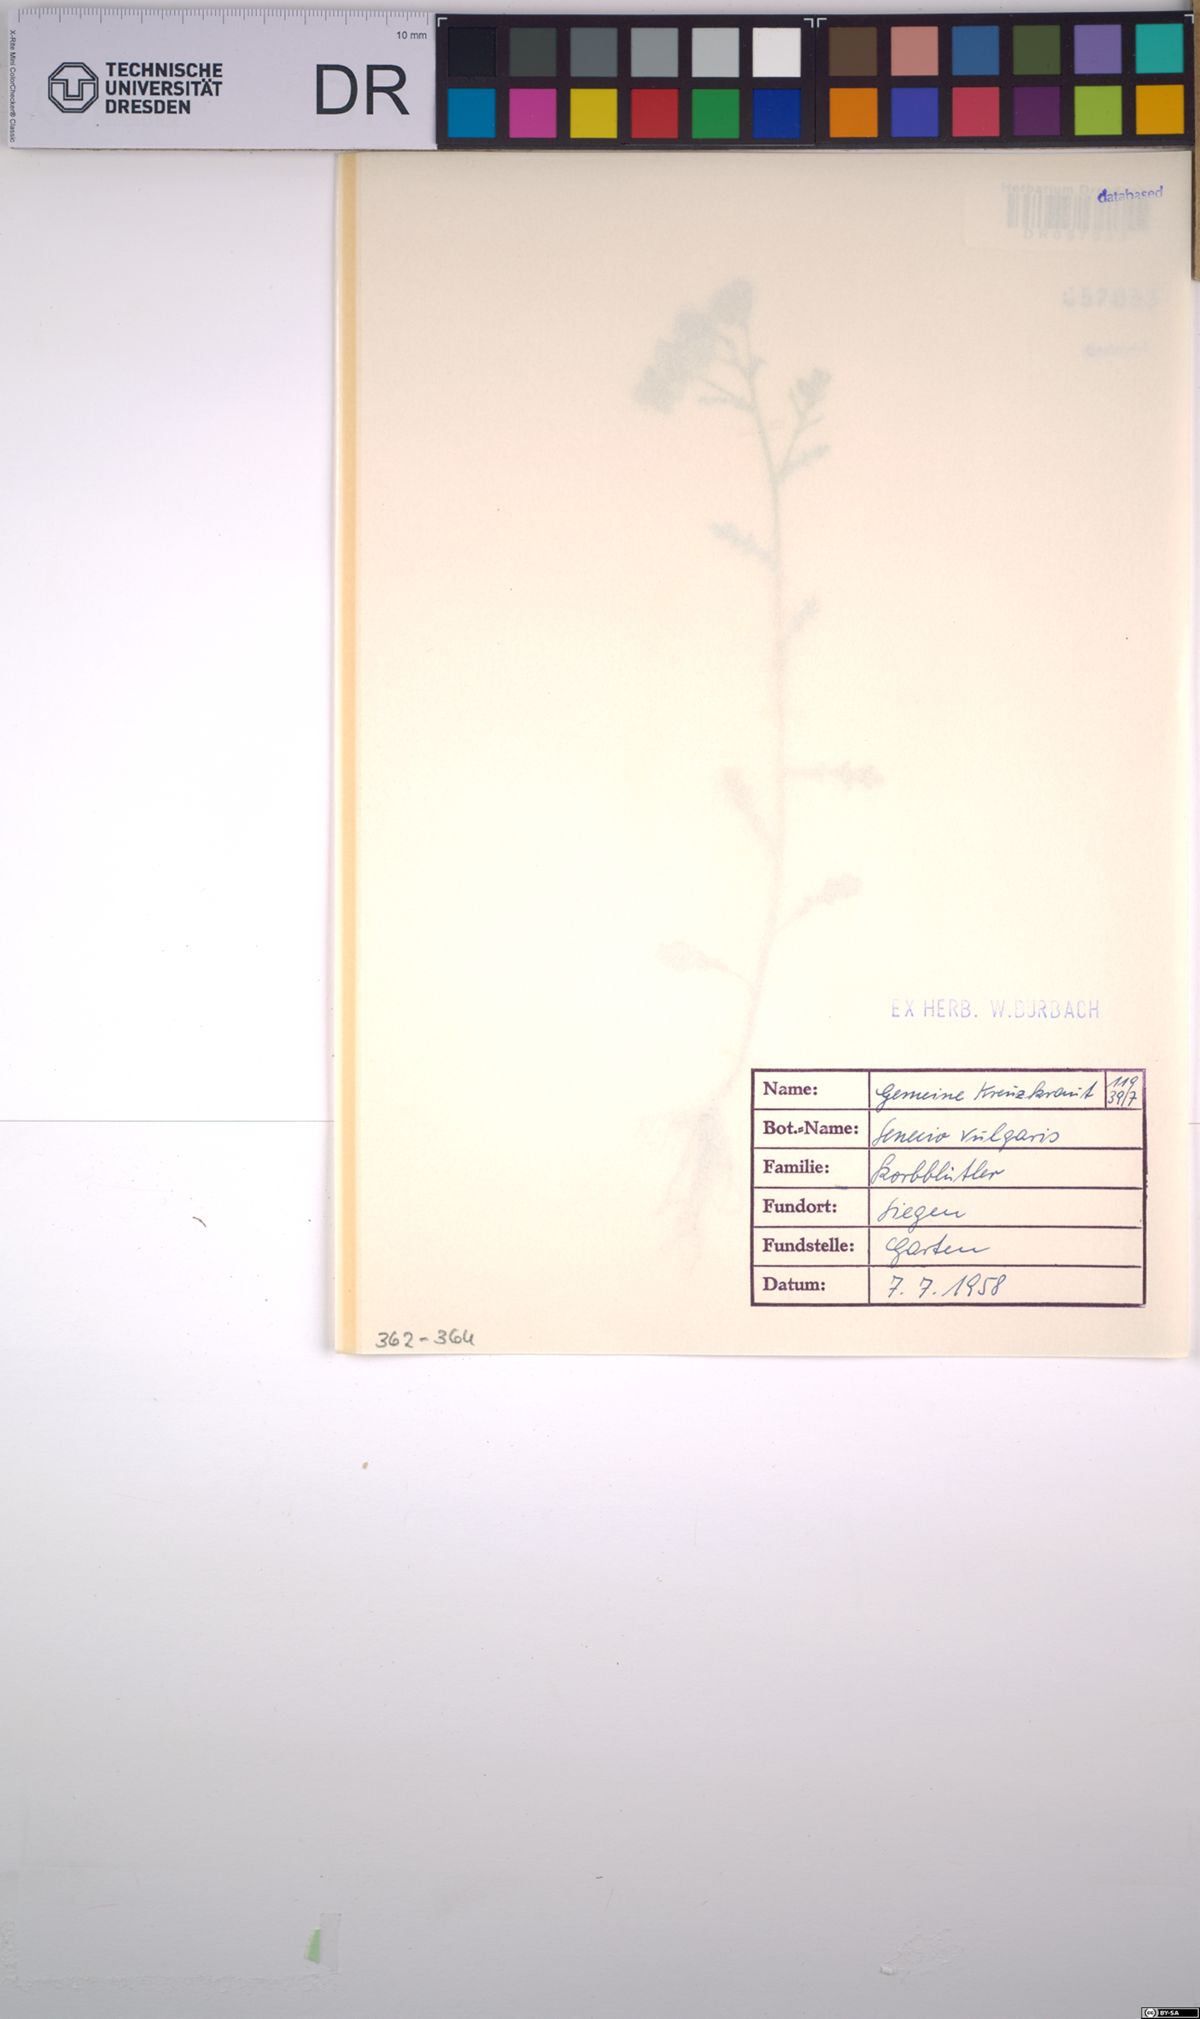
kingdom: Plantae
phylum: Tracheophyta
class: Magnoliopsida
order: Asterales
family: Asteraceae
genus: Senecio
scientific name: Senecio vulgaris
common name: Old-man-in-the-spring
